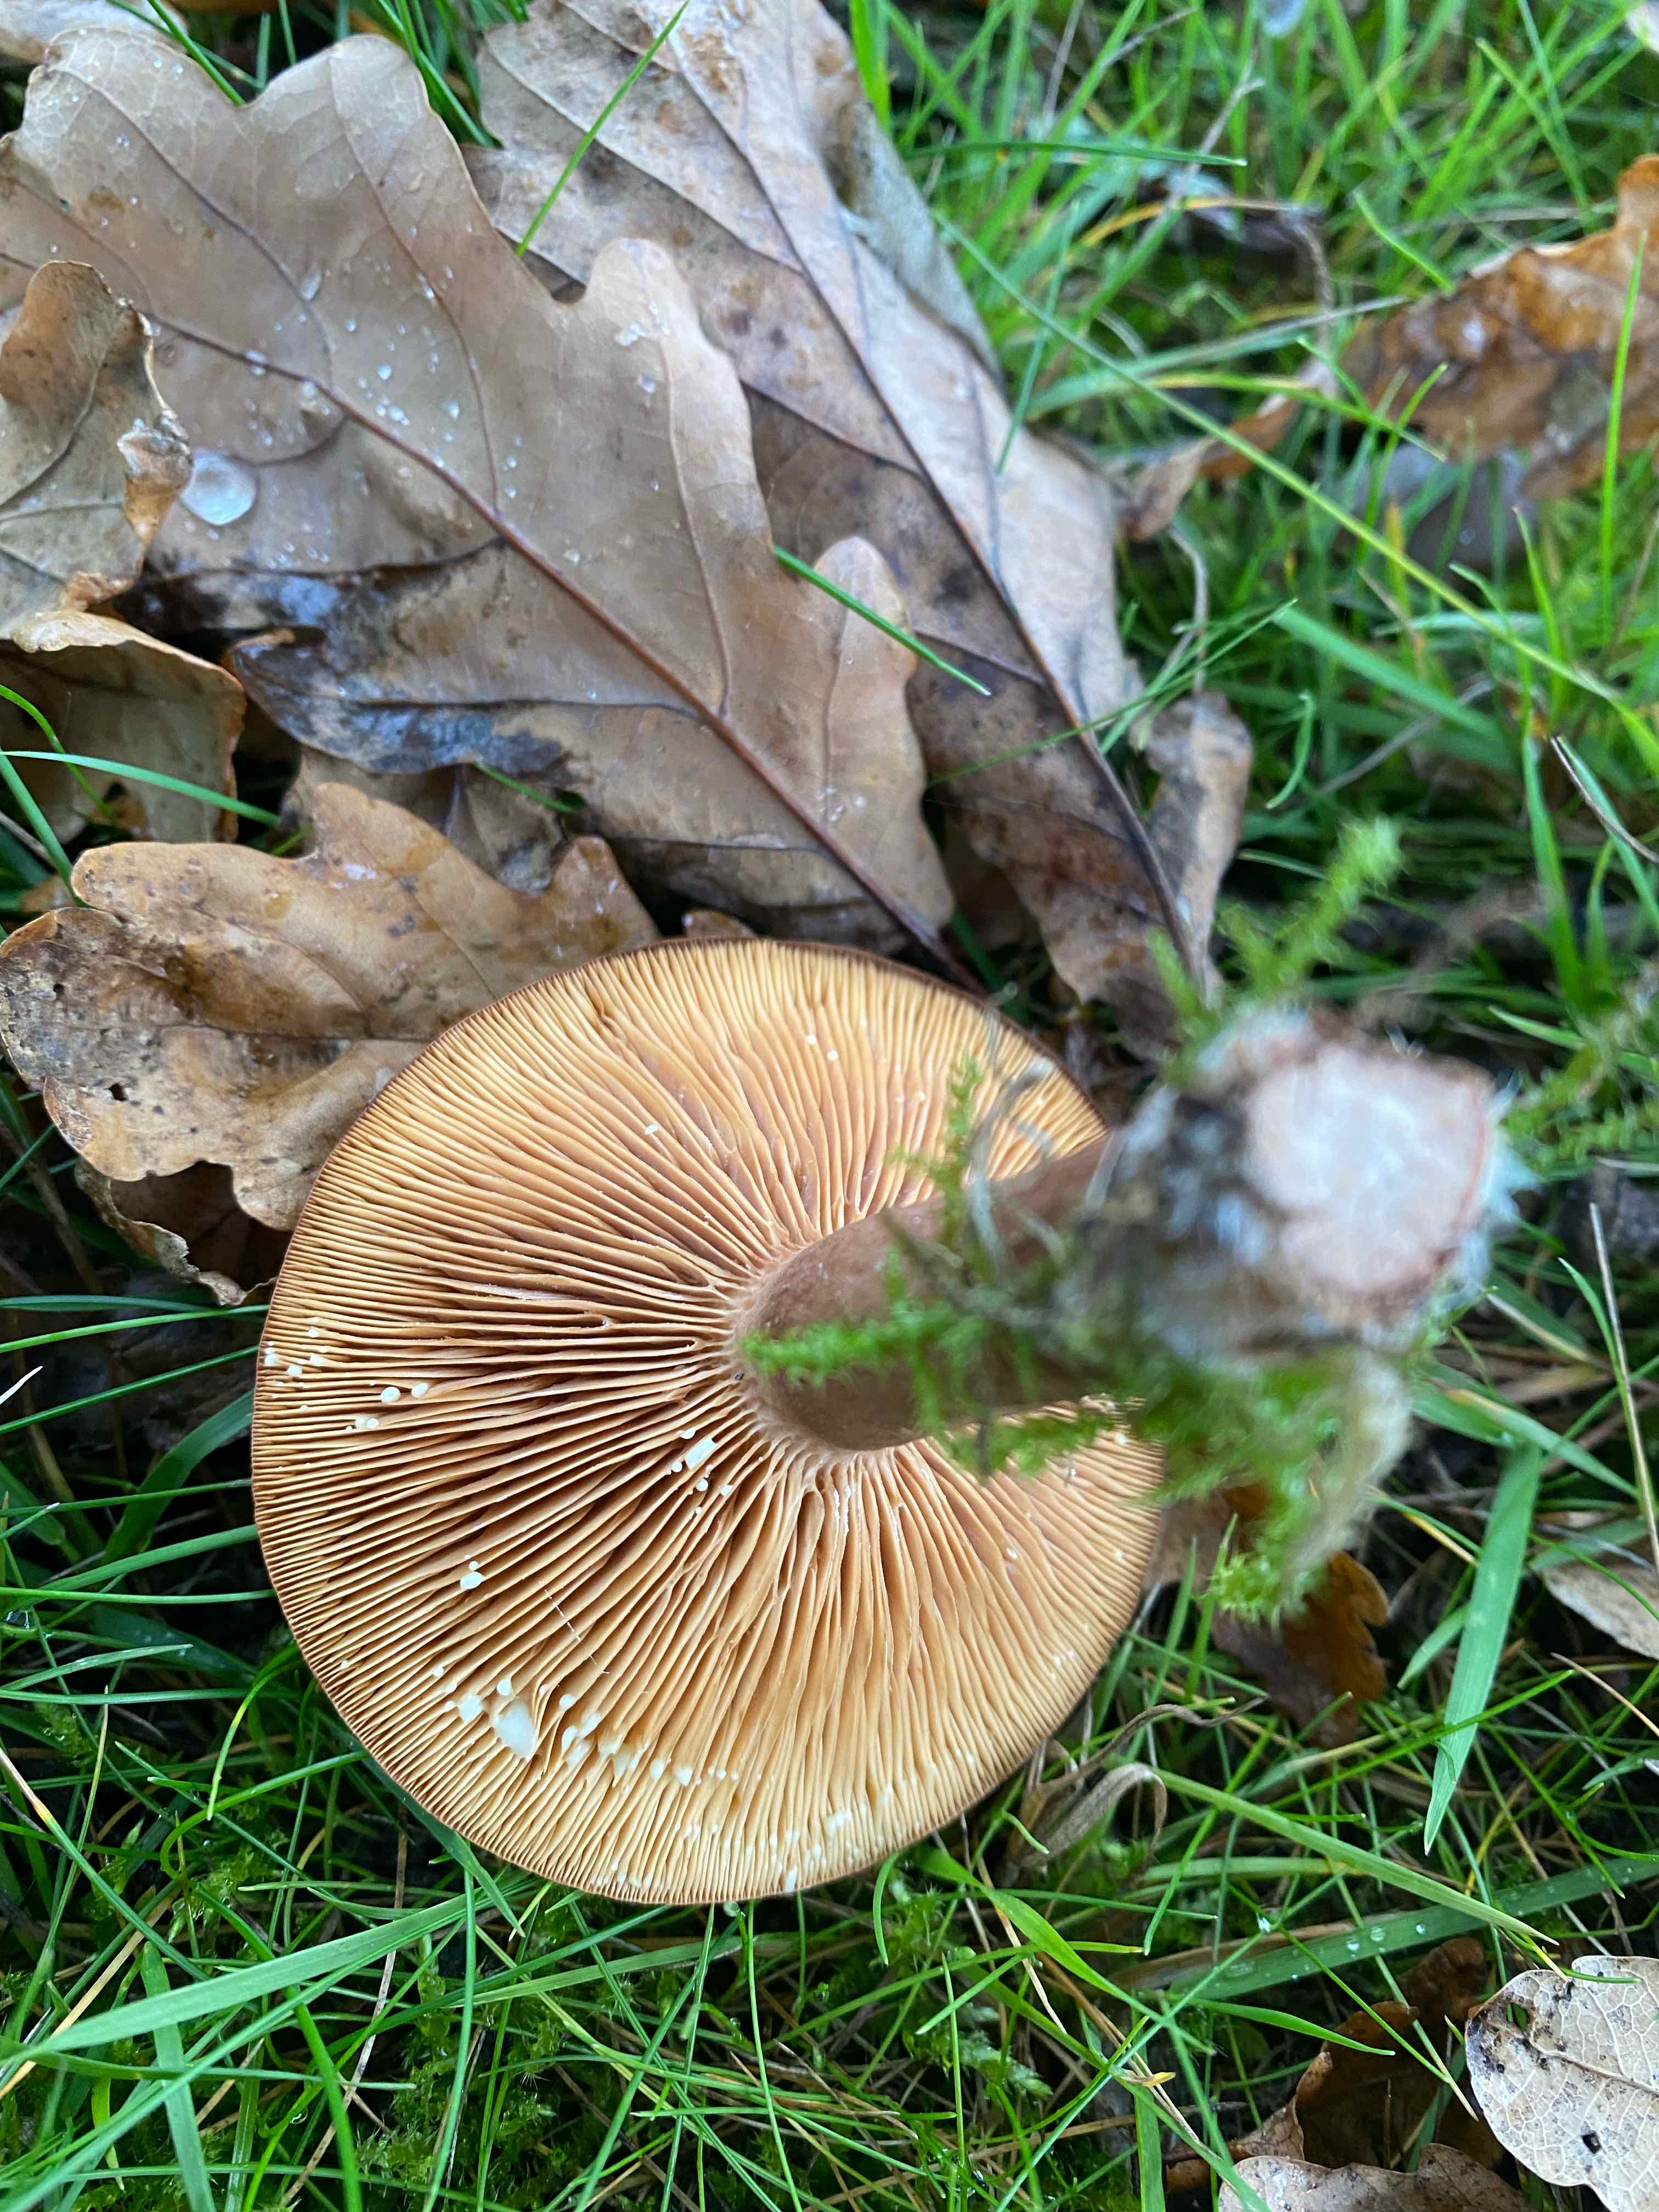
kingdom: Fungi
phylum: Basidiomycota
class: Agaricomycetes
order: Russulales
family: Russulaceae
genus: Lactarius
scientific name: Lactarius quietus
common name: ege-mælkehat
